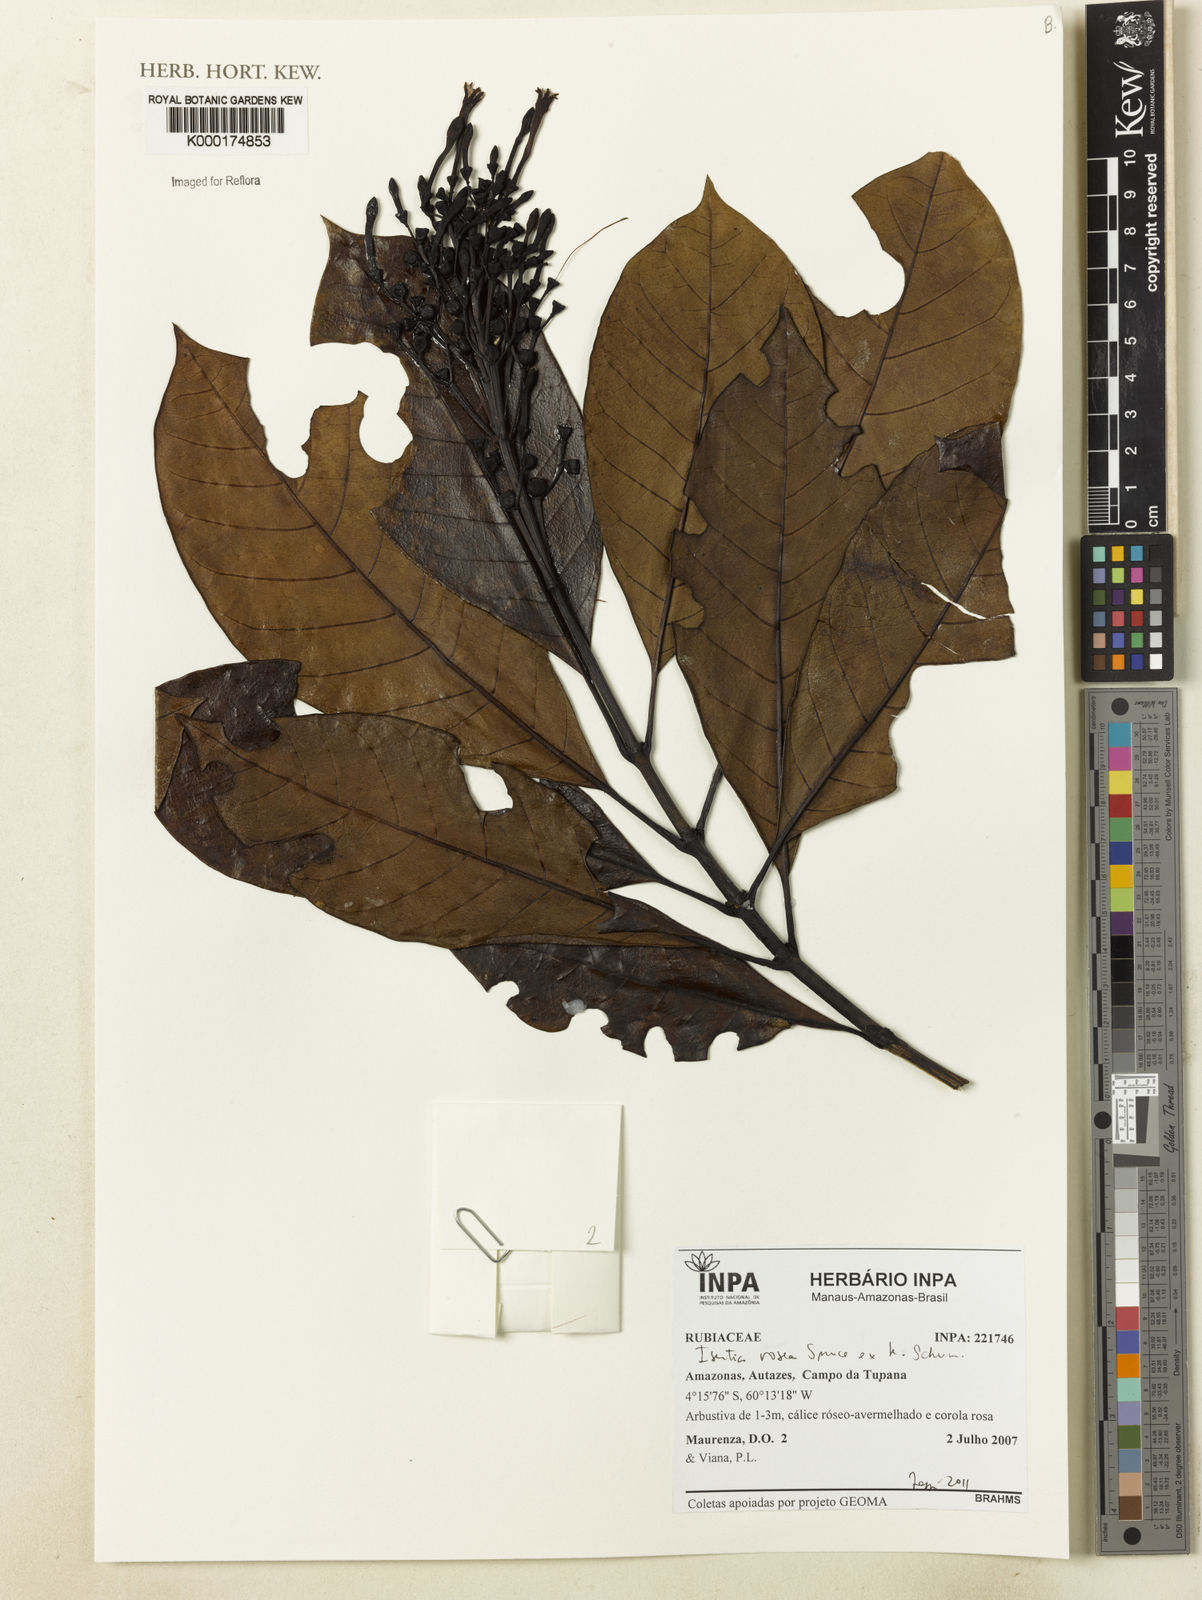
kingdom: Plantae
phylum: Tracheophyta
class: Magnoliopsida
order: Gentianales
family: Rubiaceae
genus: Isertia
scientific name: Isertia rosea
